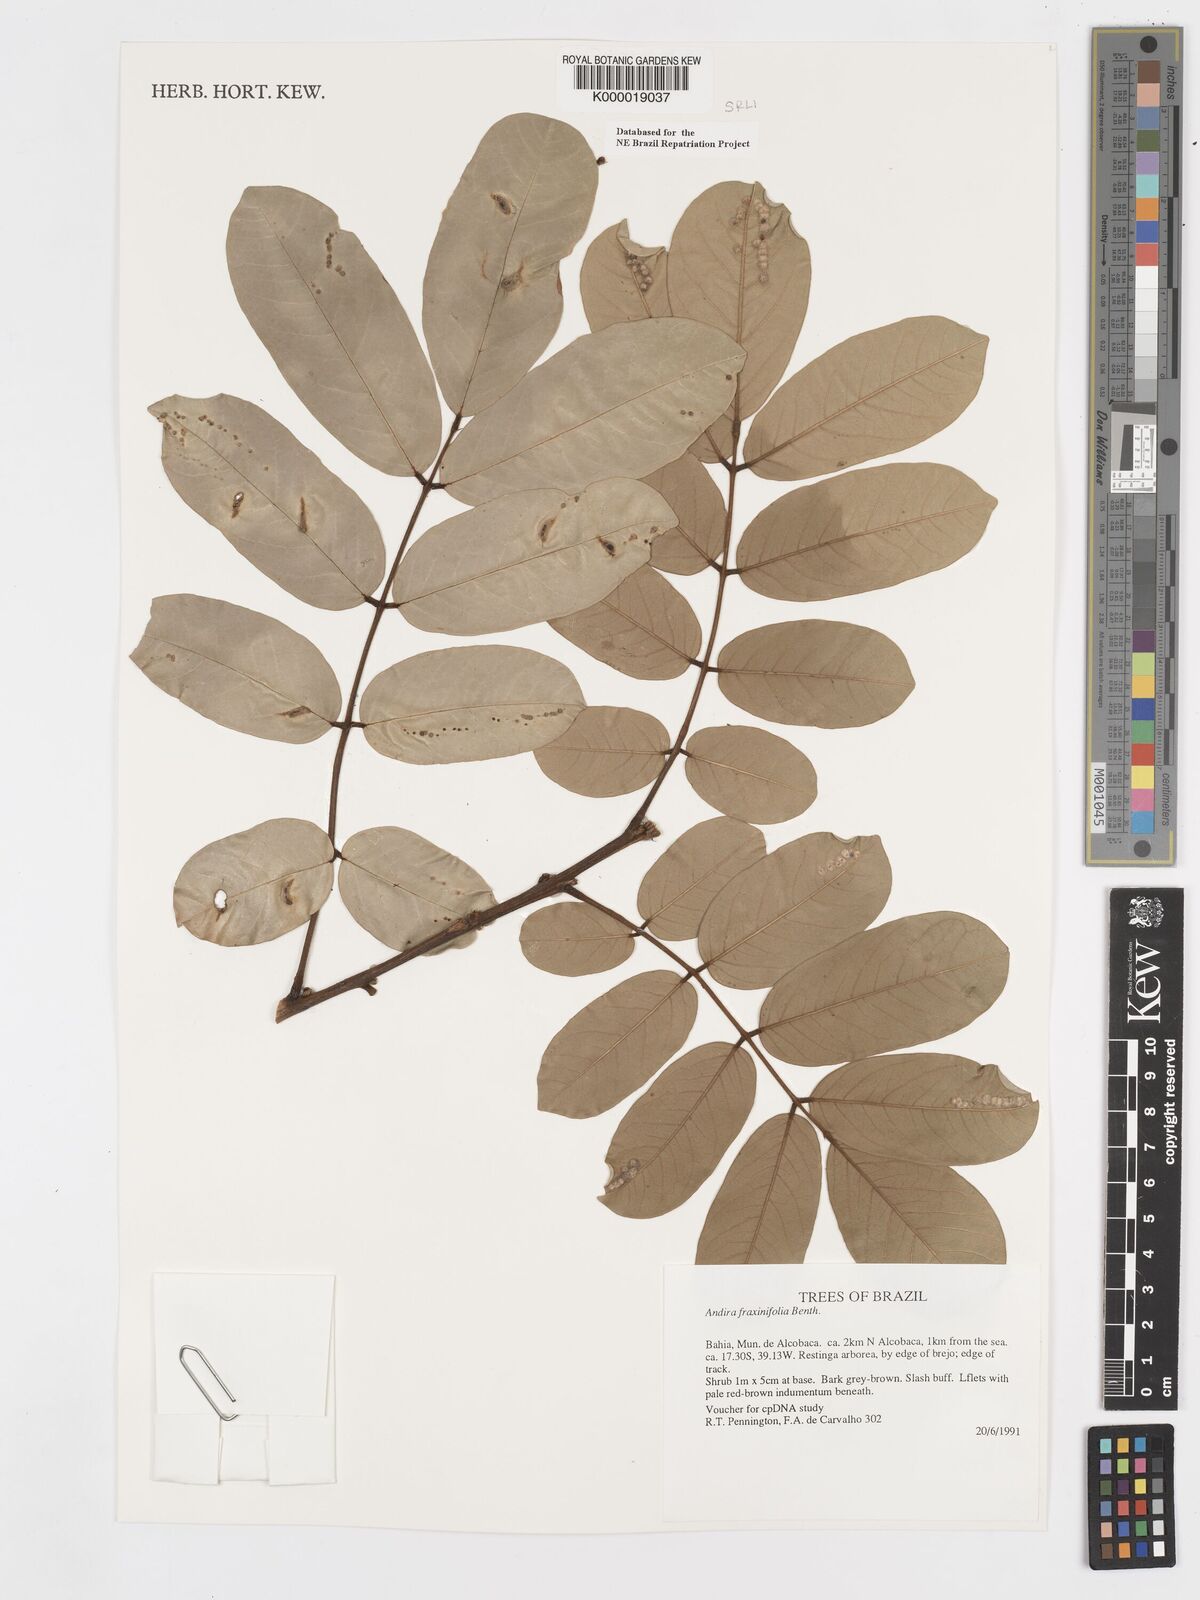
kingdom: Plantae
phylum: Tracheophyta
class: Magnoliopsida
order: Fabales
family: Fabaceae
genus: Andira
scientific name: Andira fraxinifolia
